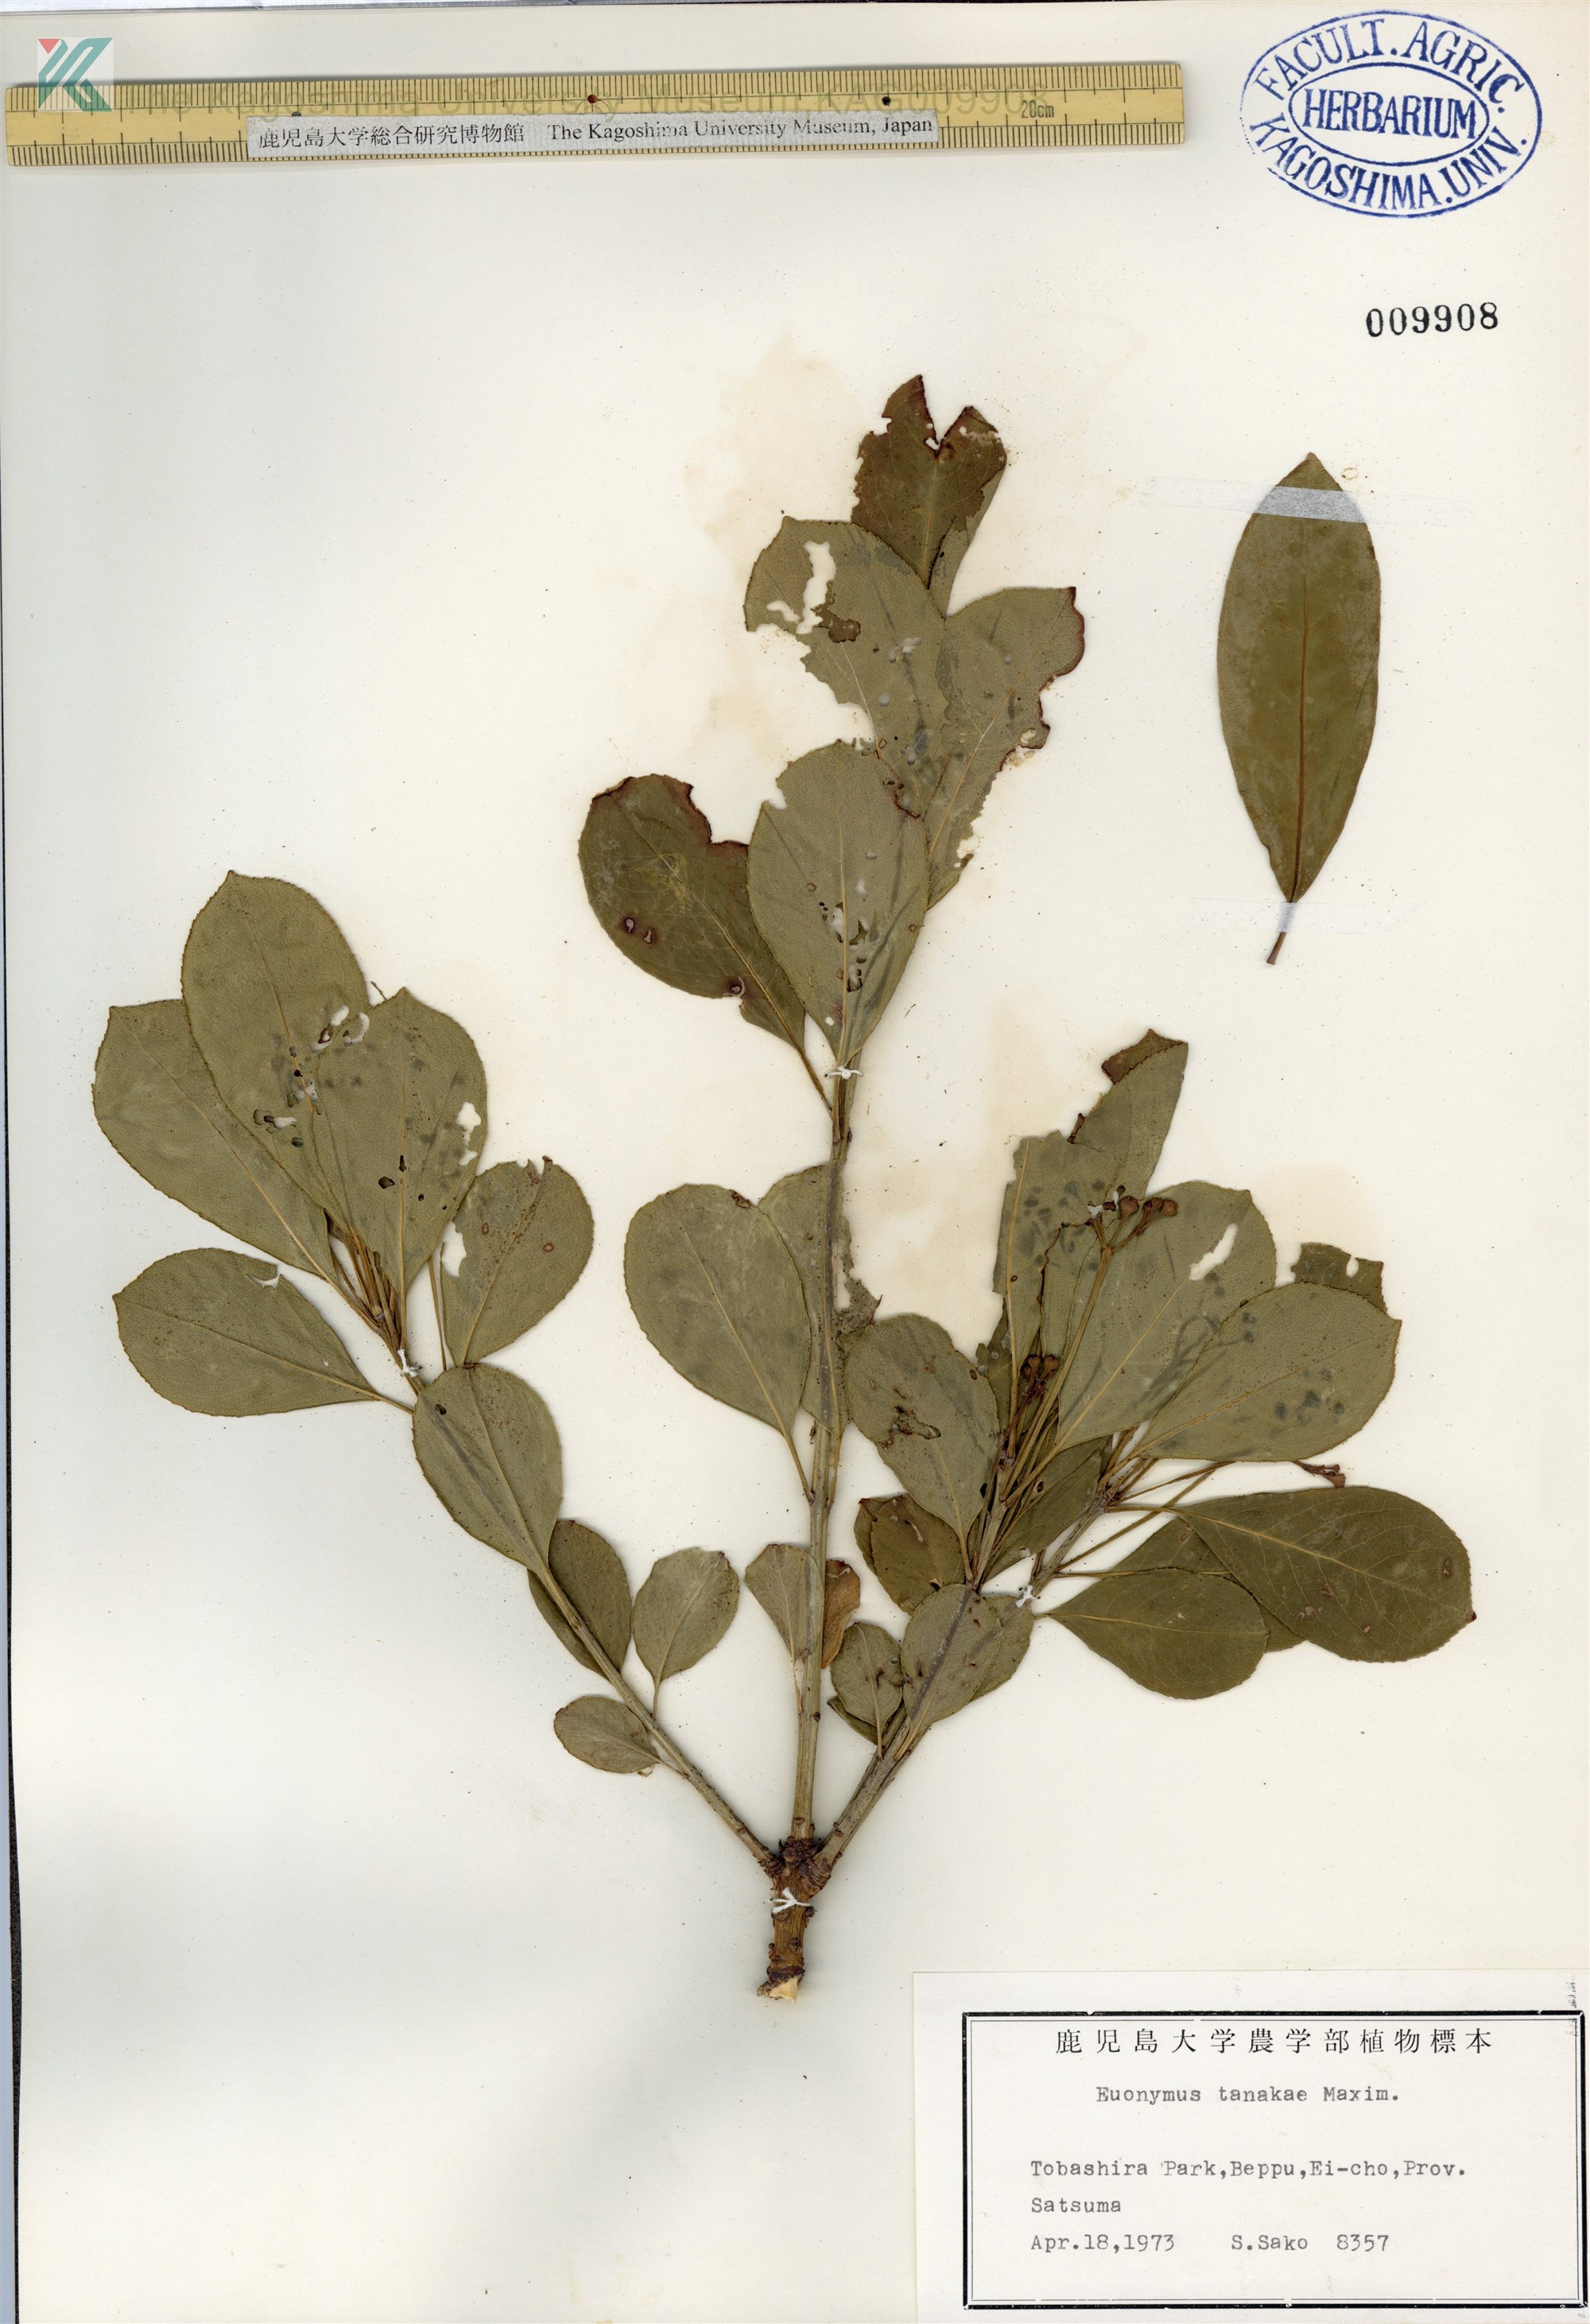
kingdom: Plantae
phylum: Tracheophyta
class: Magnoliopsida
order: Celastrales
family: Celastraceae
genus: Euonymus
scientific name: Euonymus carnosus
